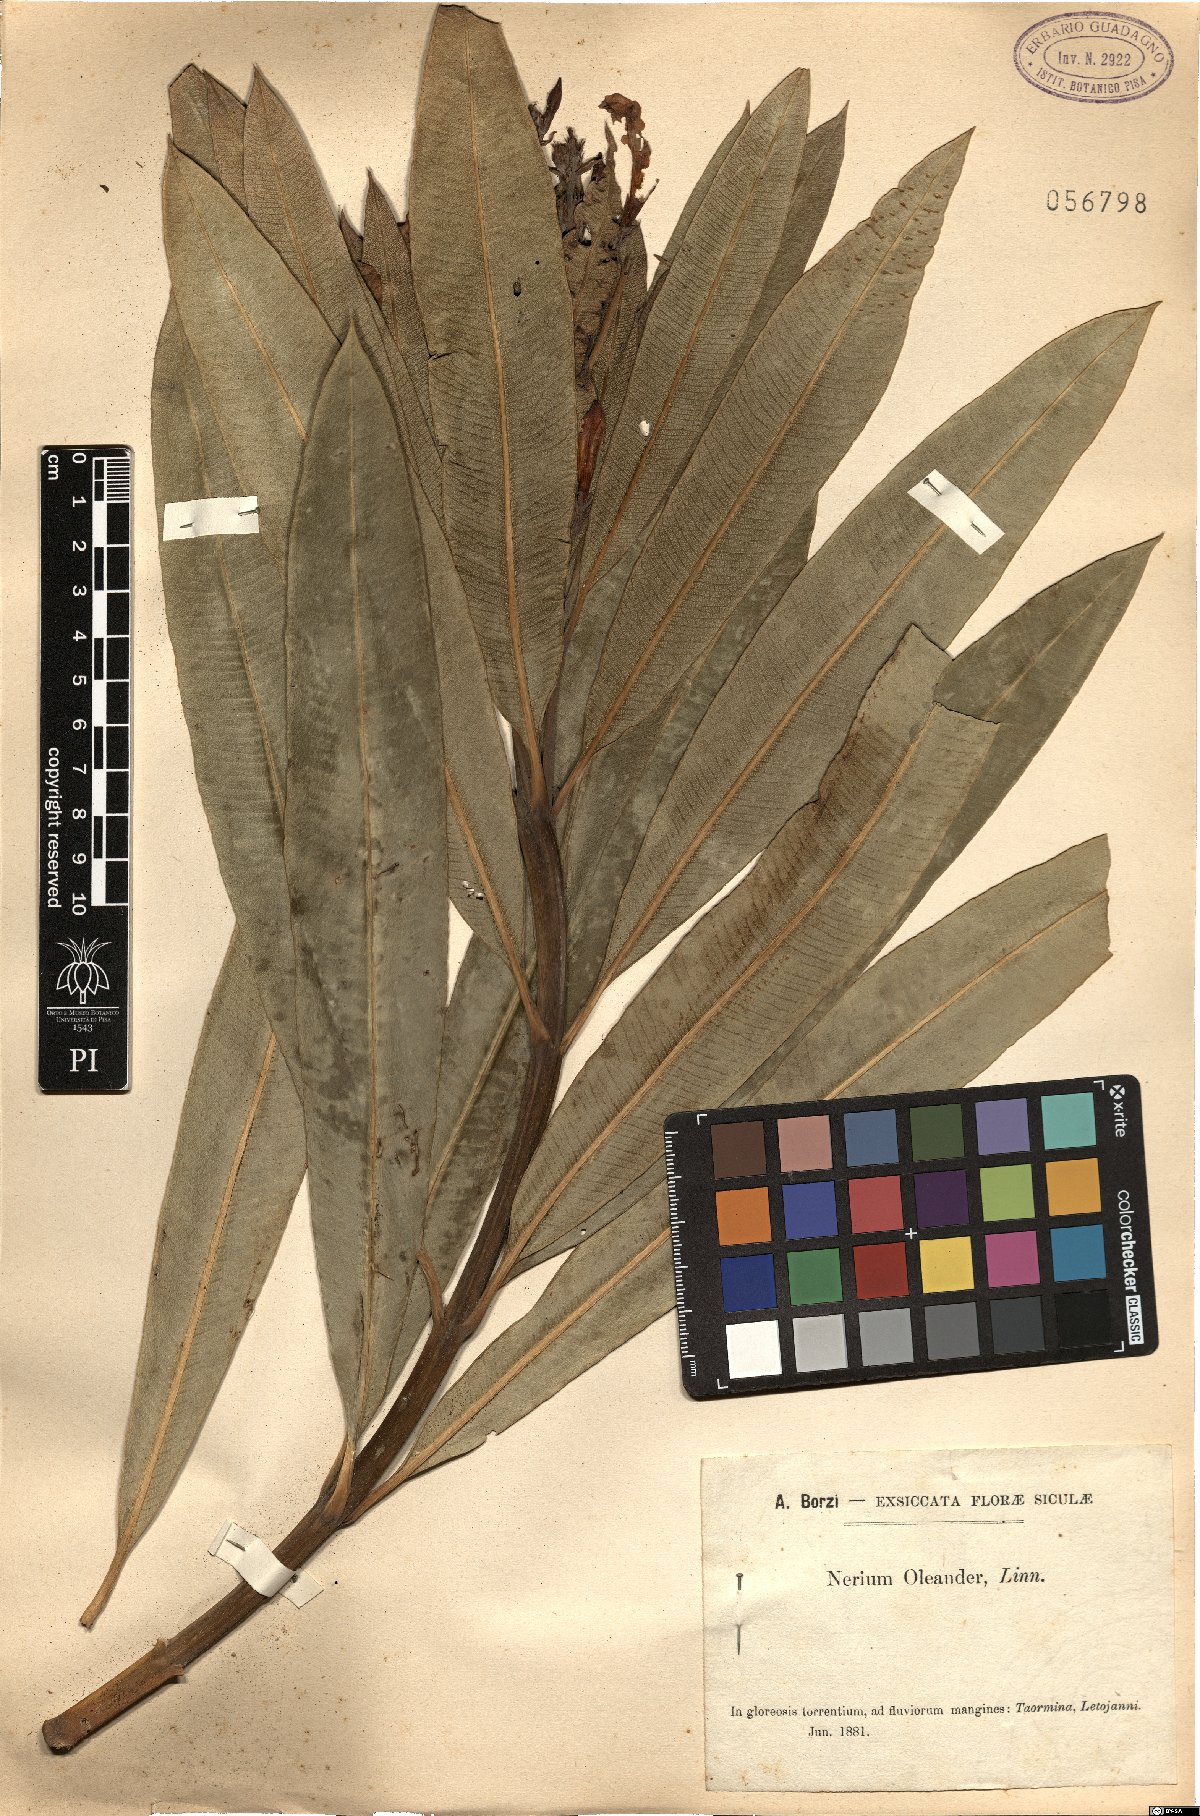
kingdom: Plantae
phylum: Tracheophyta
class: Magnoliopsida
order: Gentianales
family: Apocynaceae
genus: Nerium
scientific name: Nerium oleander
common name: Oleander
